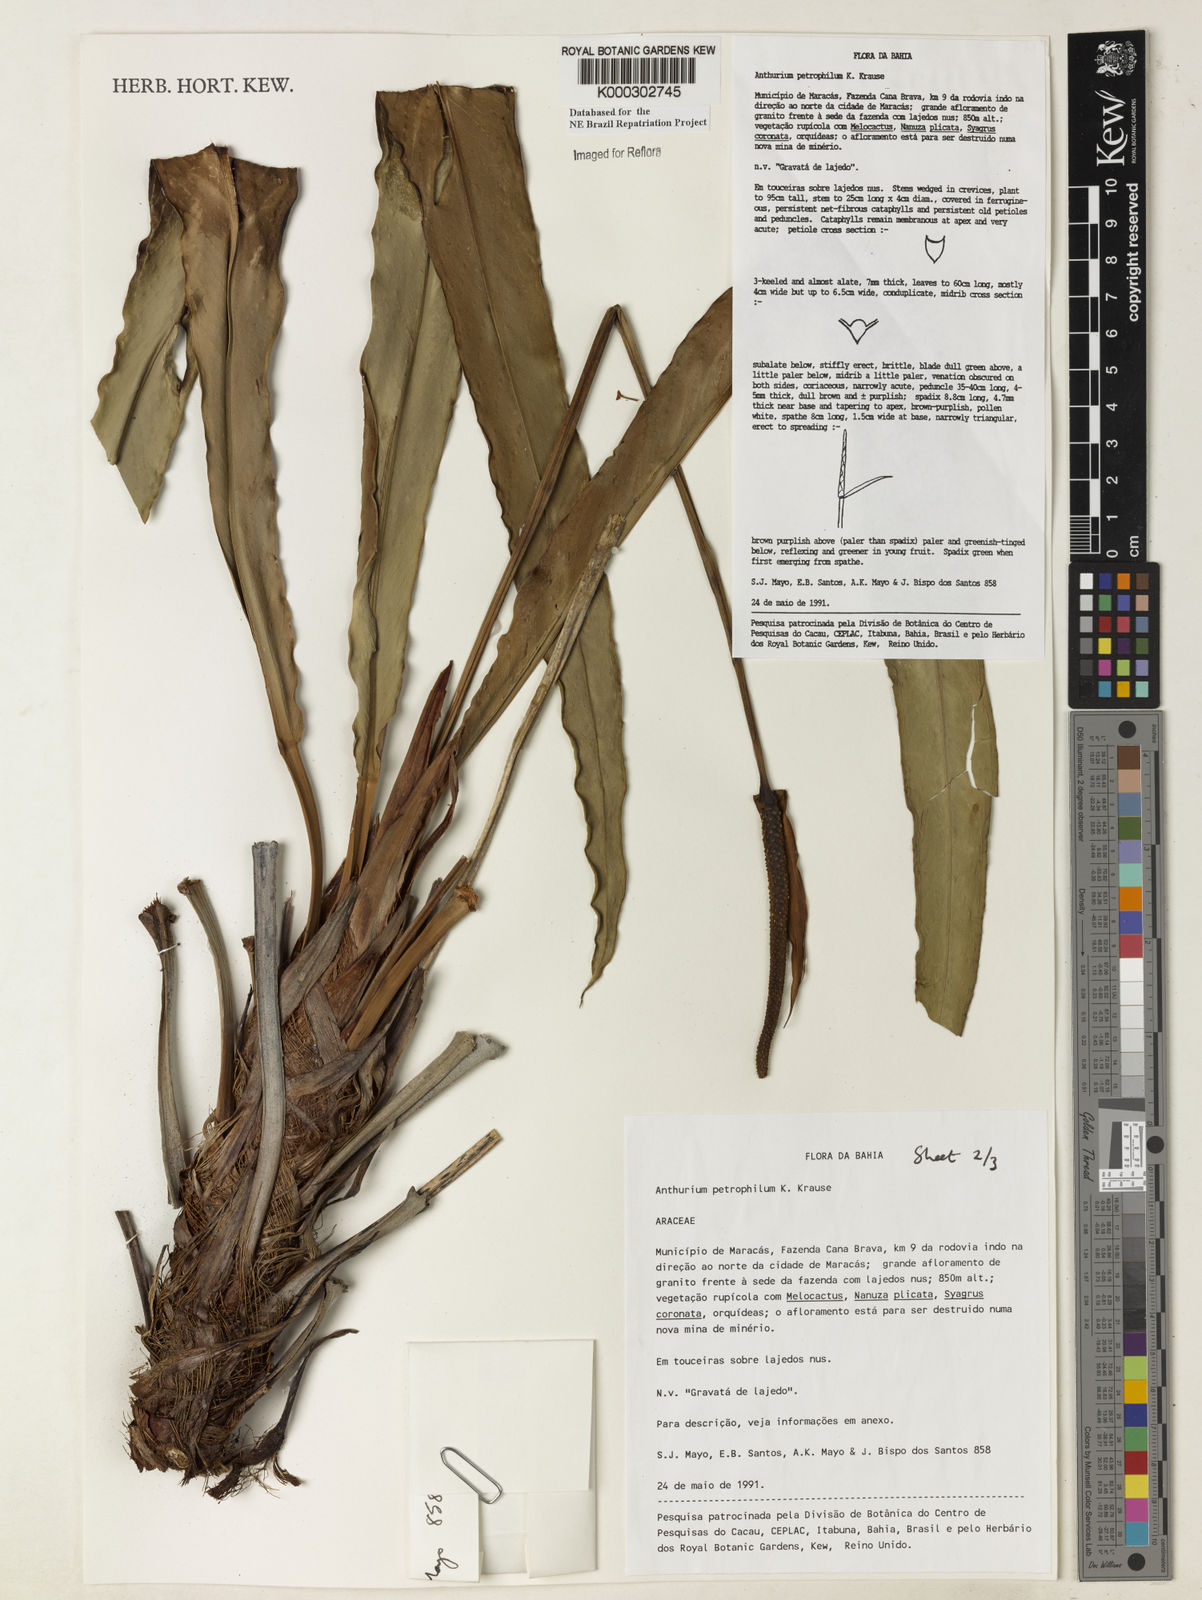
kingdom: Plantae
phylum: Tracheophyta
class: Liliopsida
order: Alismatales
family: Araceae
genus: Anthurium
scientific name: Anthurium petrophilum
